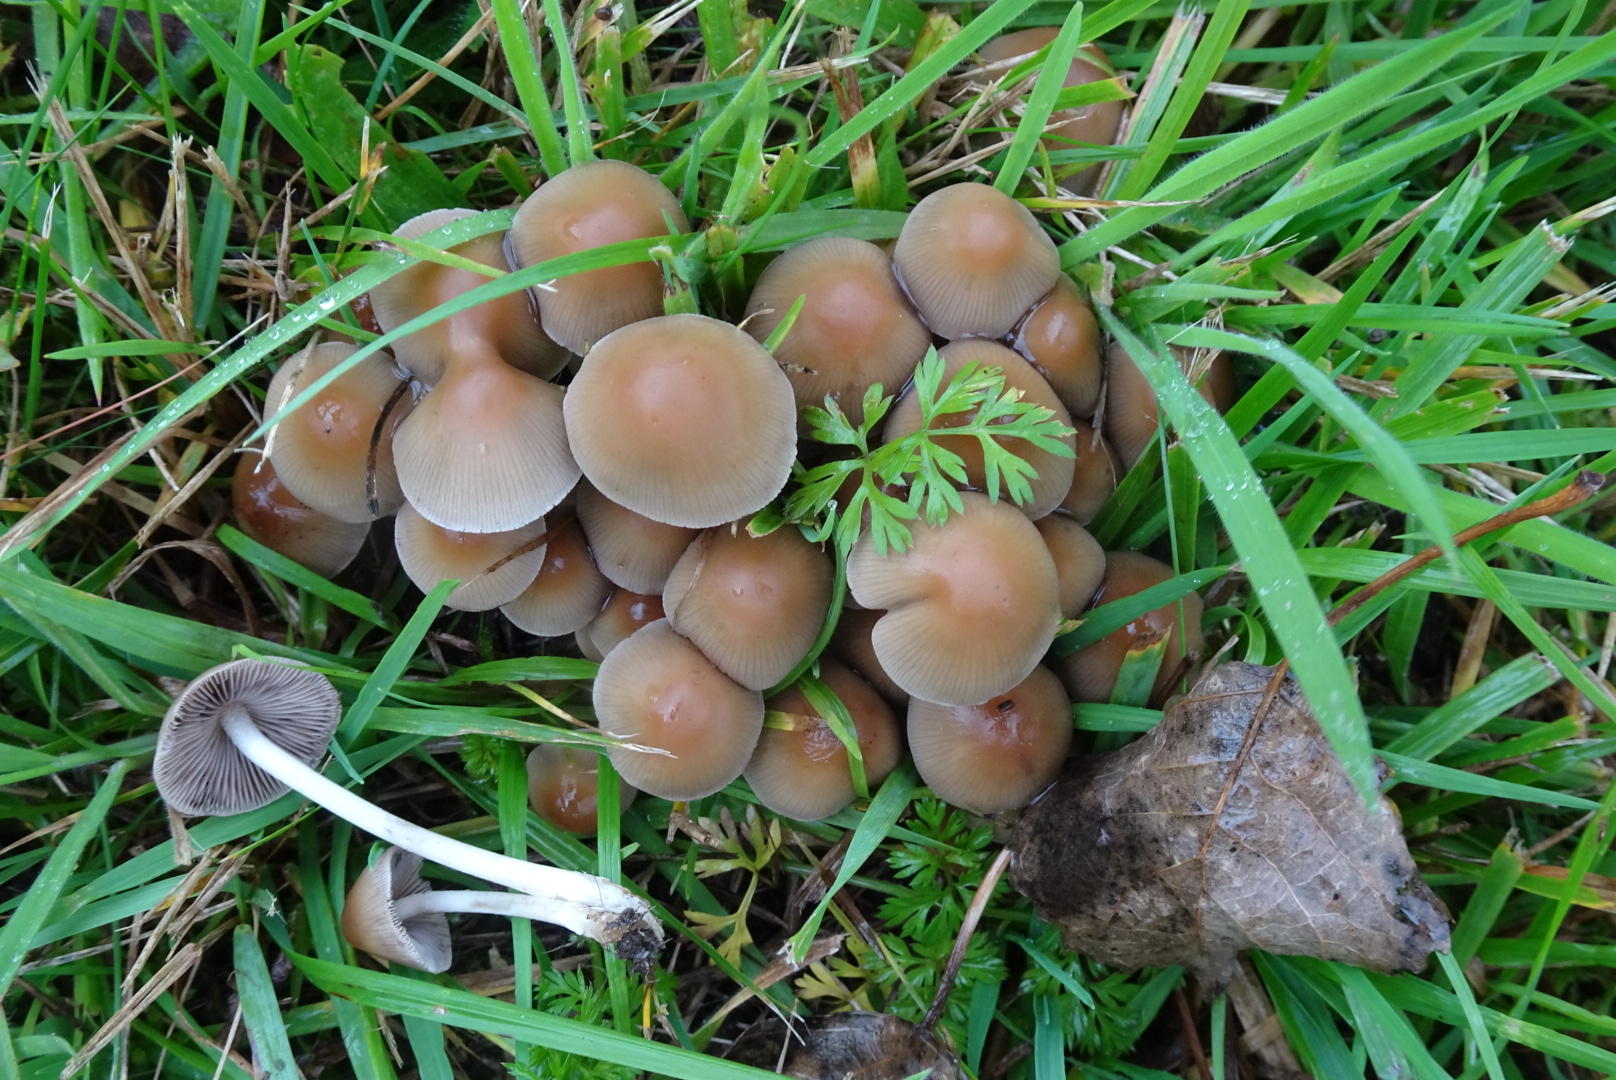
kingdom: Fungi
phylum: Basidiomycota
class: Agaricomycetes
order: Agaricales
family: Psathyrellaceae
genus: Britzelmayria
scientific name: Britzelmayria multipedata
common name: knippe-mørkhat
